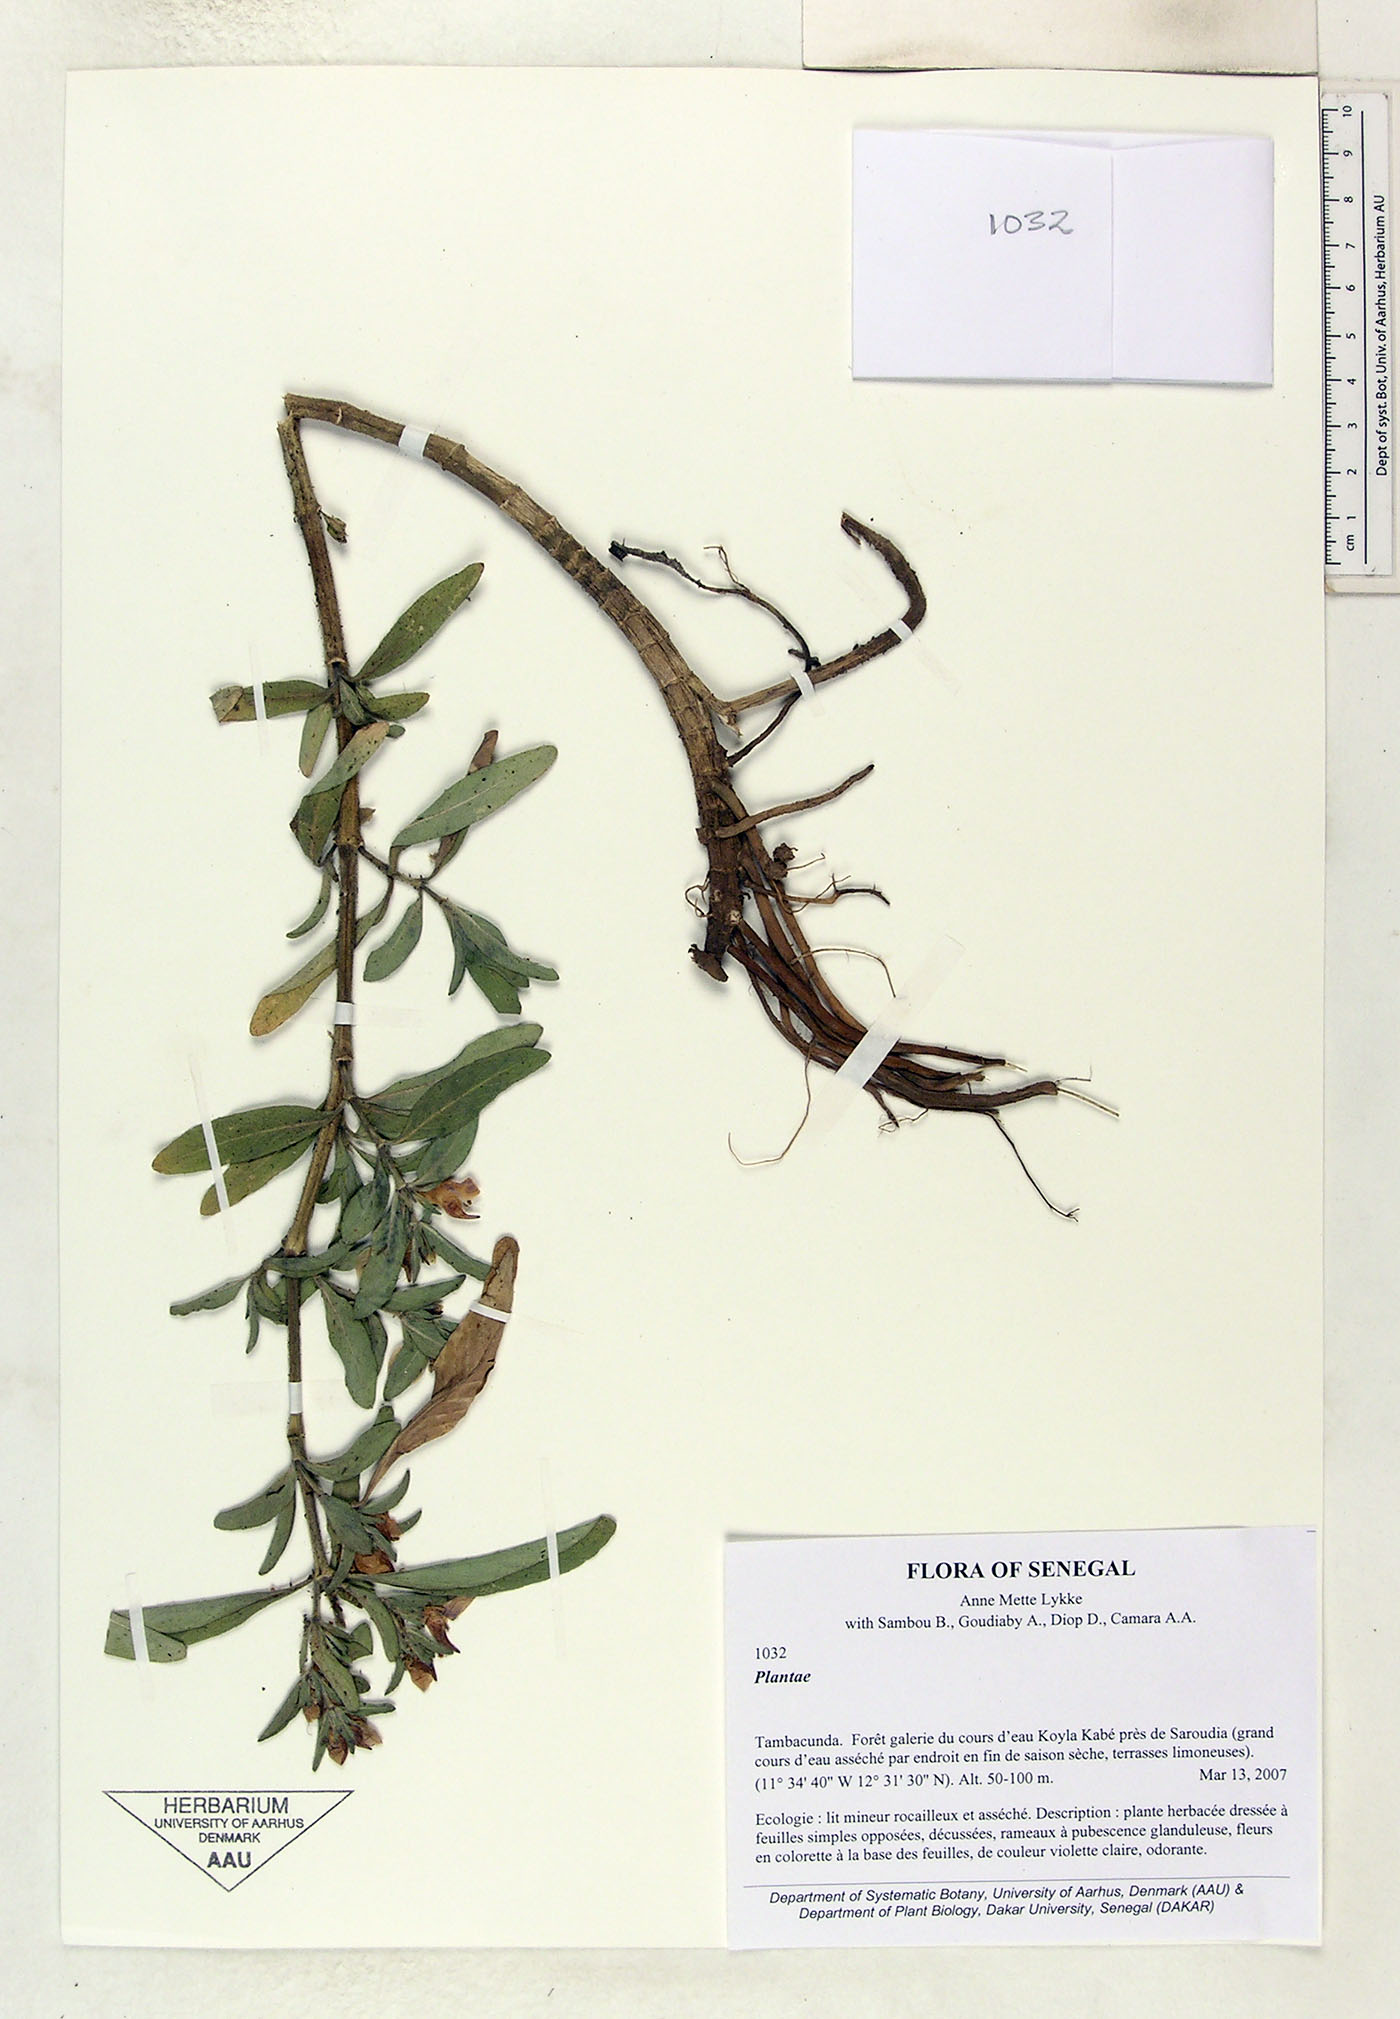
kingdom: Plantae
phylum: Tracheophyta
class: Magnoliopsida
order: Lamiales
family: Acanthaceae
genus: Hygrophila
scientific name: Hygrophila odora
